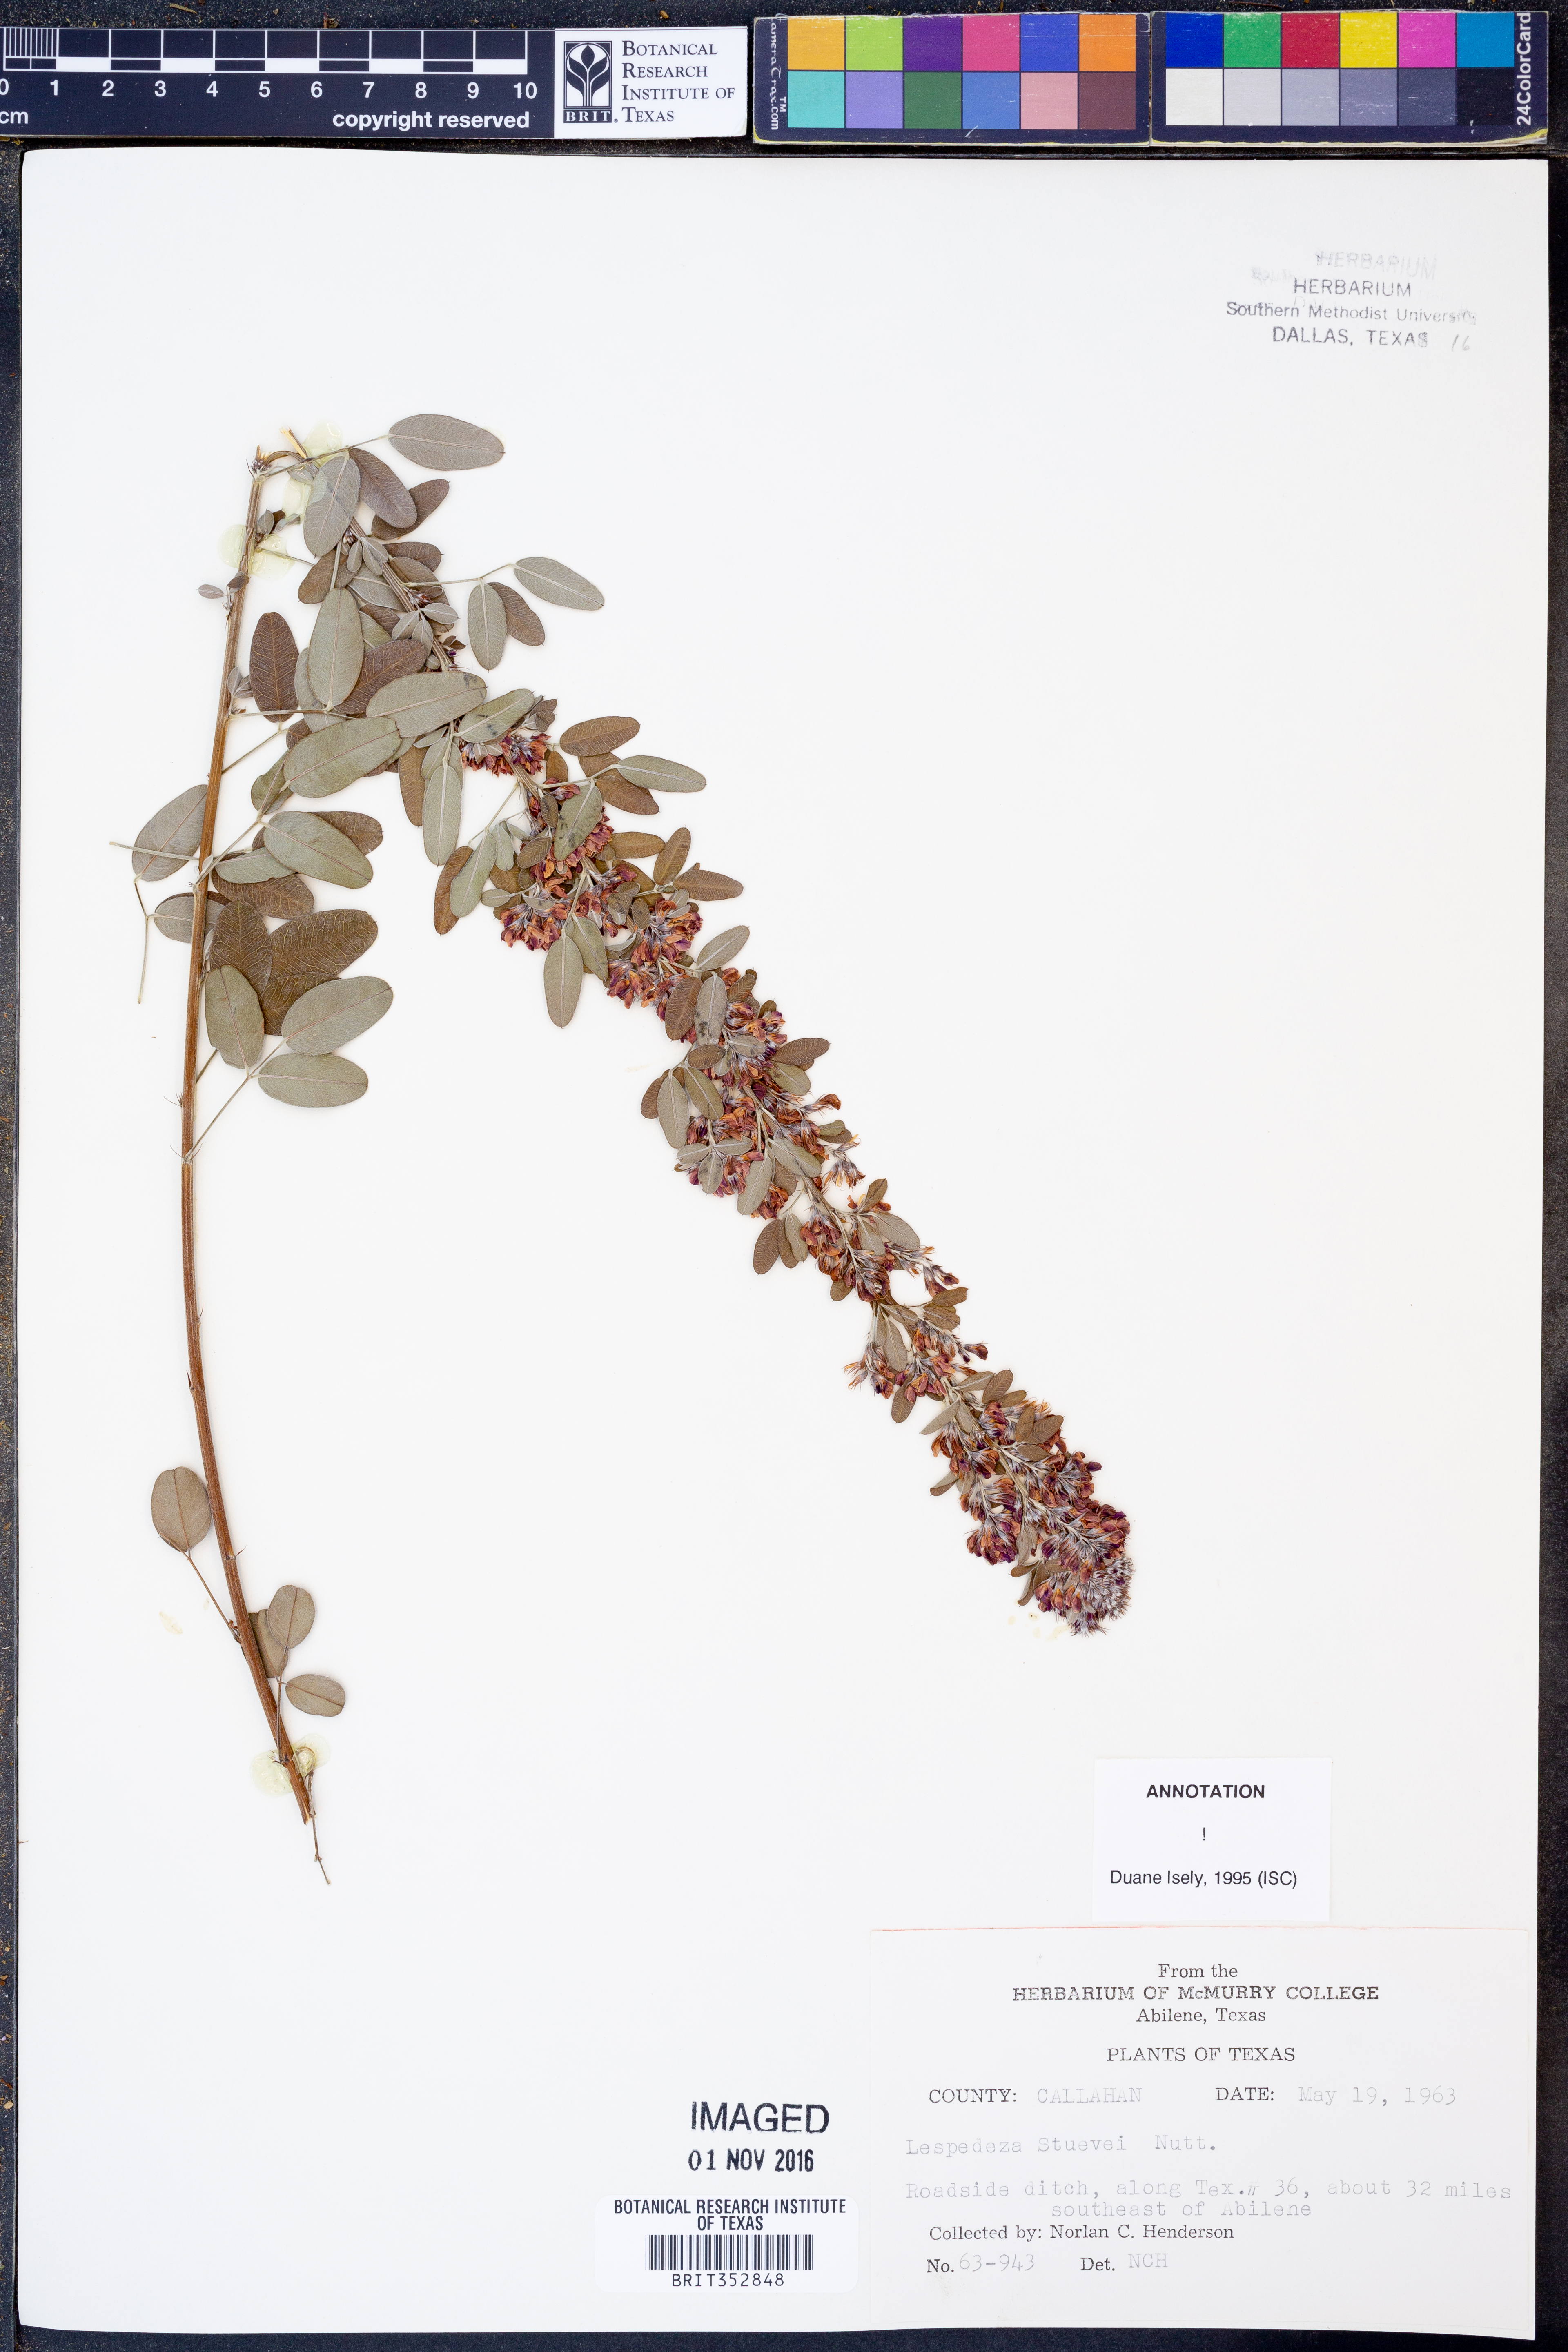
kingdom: Plantae
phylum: Tracheophyta
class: Magnoliopsida
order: Fabales
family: Fabaceae
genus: Lespedeza
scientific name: Lespedeza stuevei
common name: Tall bush-clover
